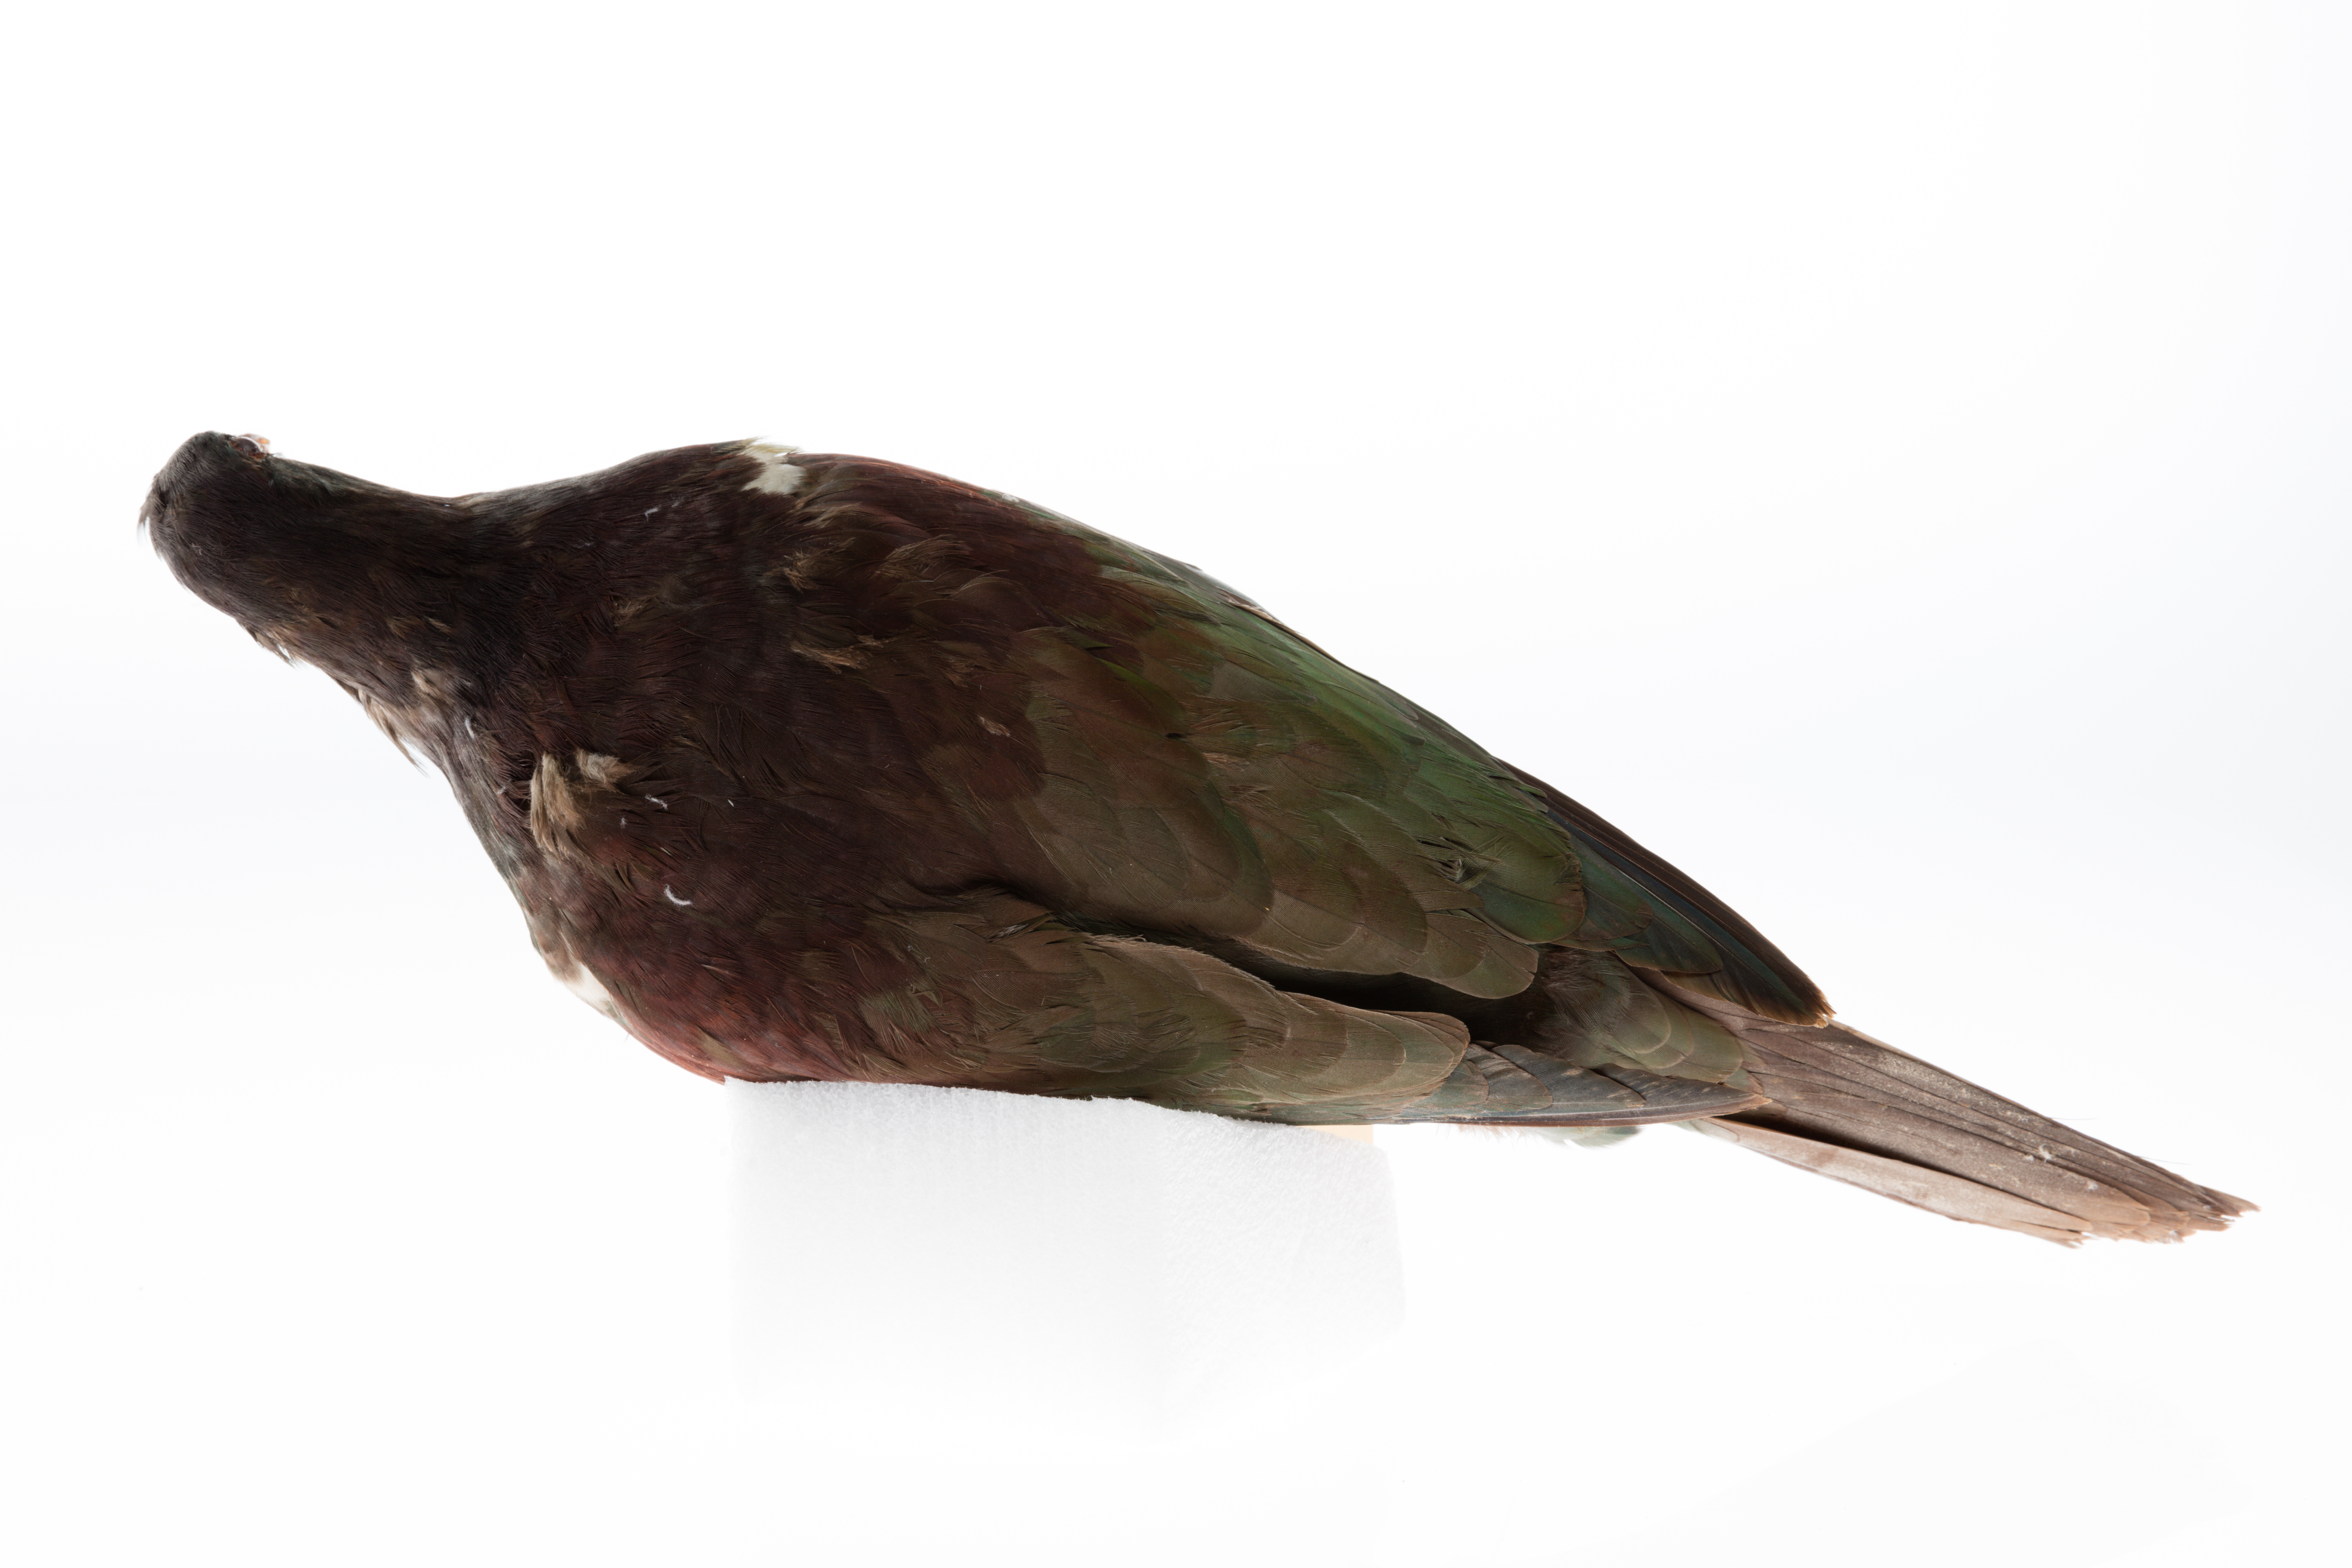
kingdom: Animalia
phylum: Chordata
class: Aves
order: Columbiformes
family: Columbidae
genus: Hemiphaga
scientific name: Hemiphaga novaeseelandiae
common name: New zealand pigeon
